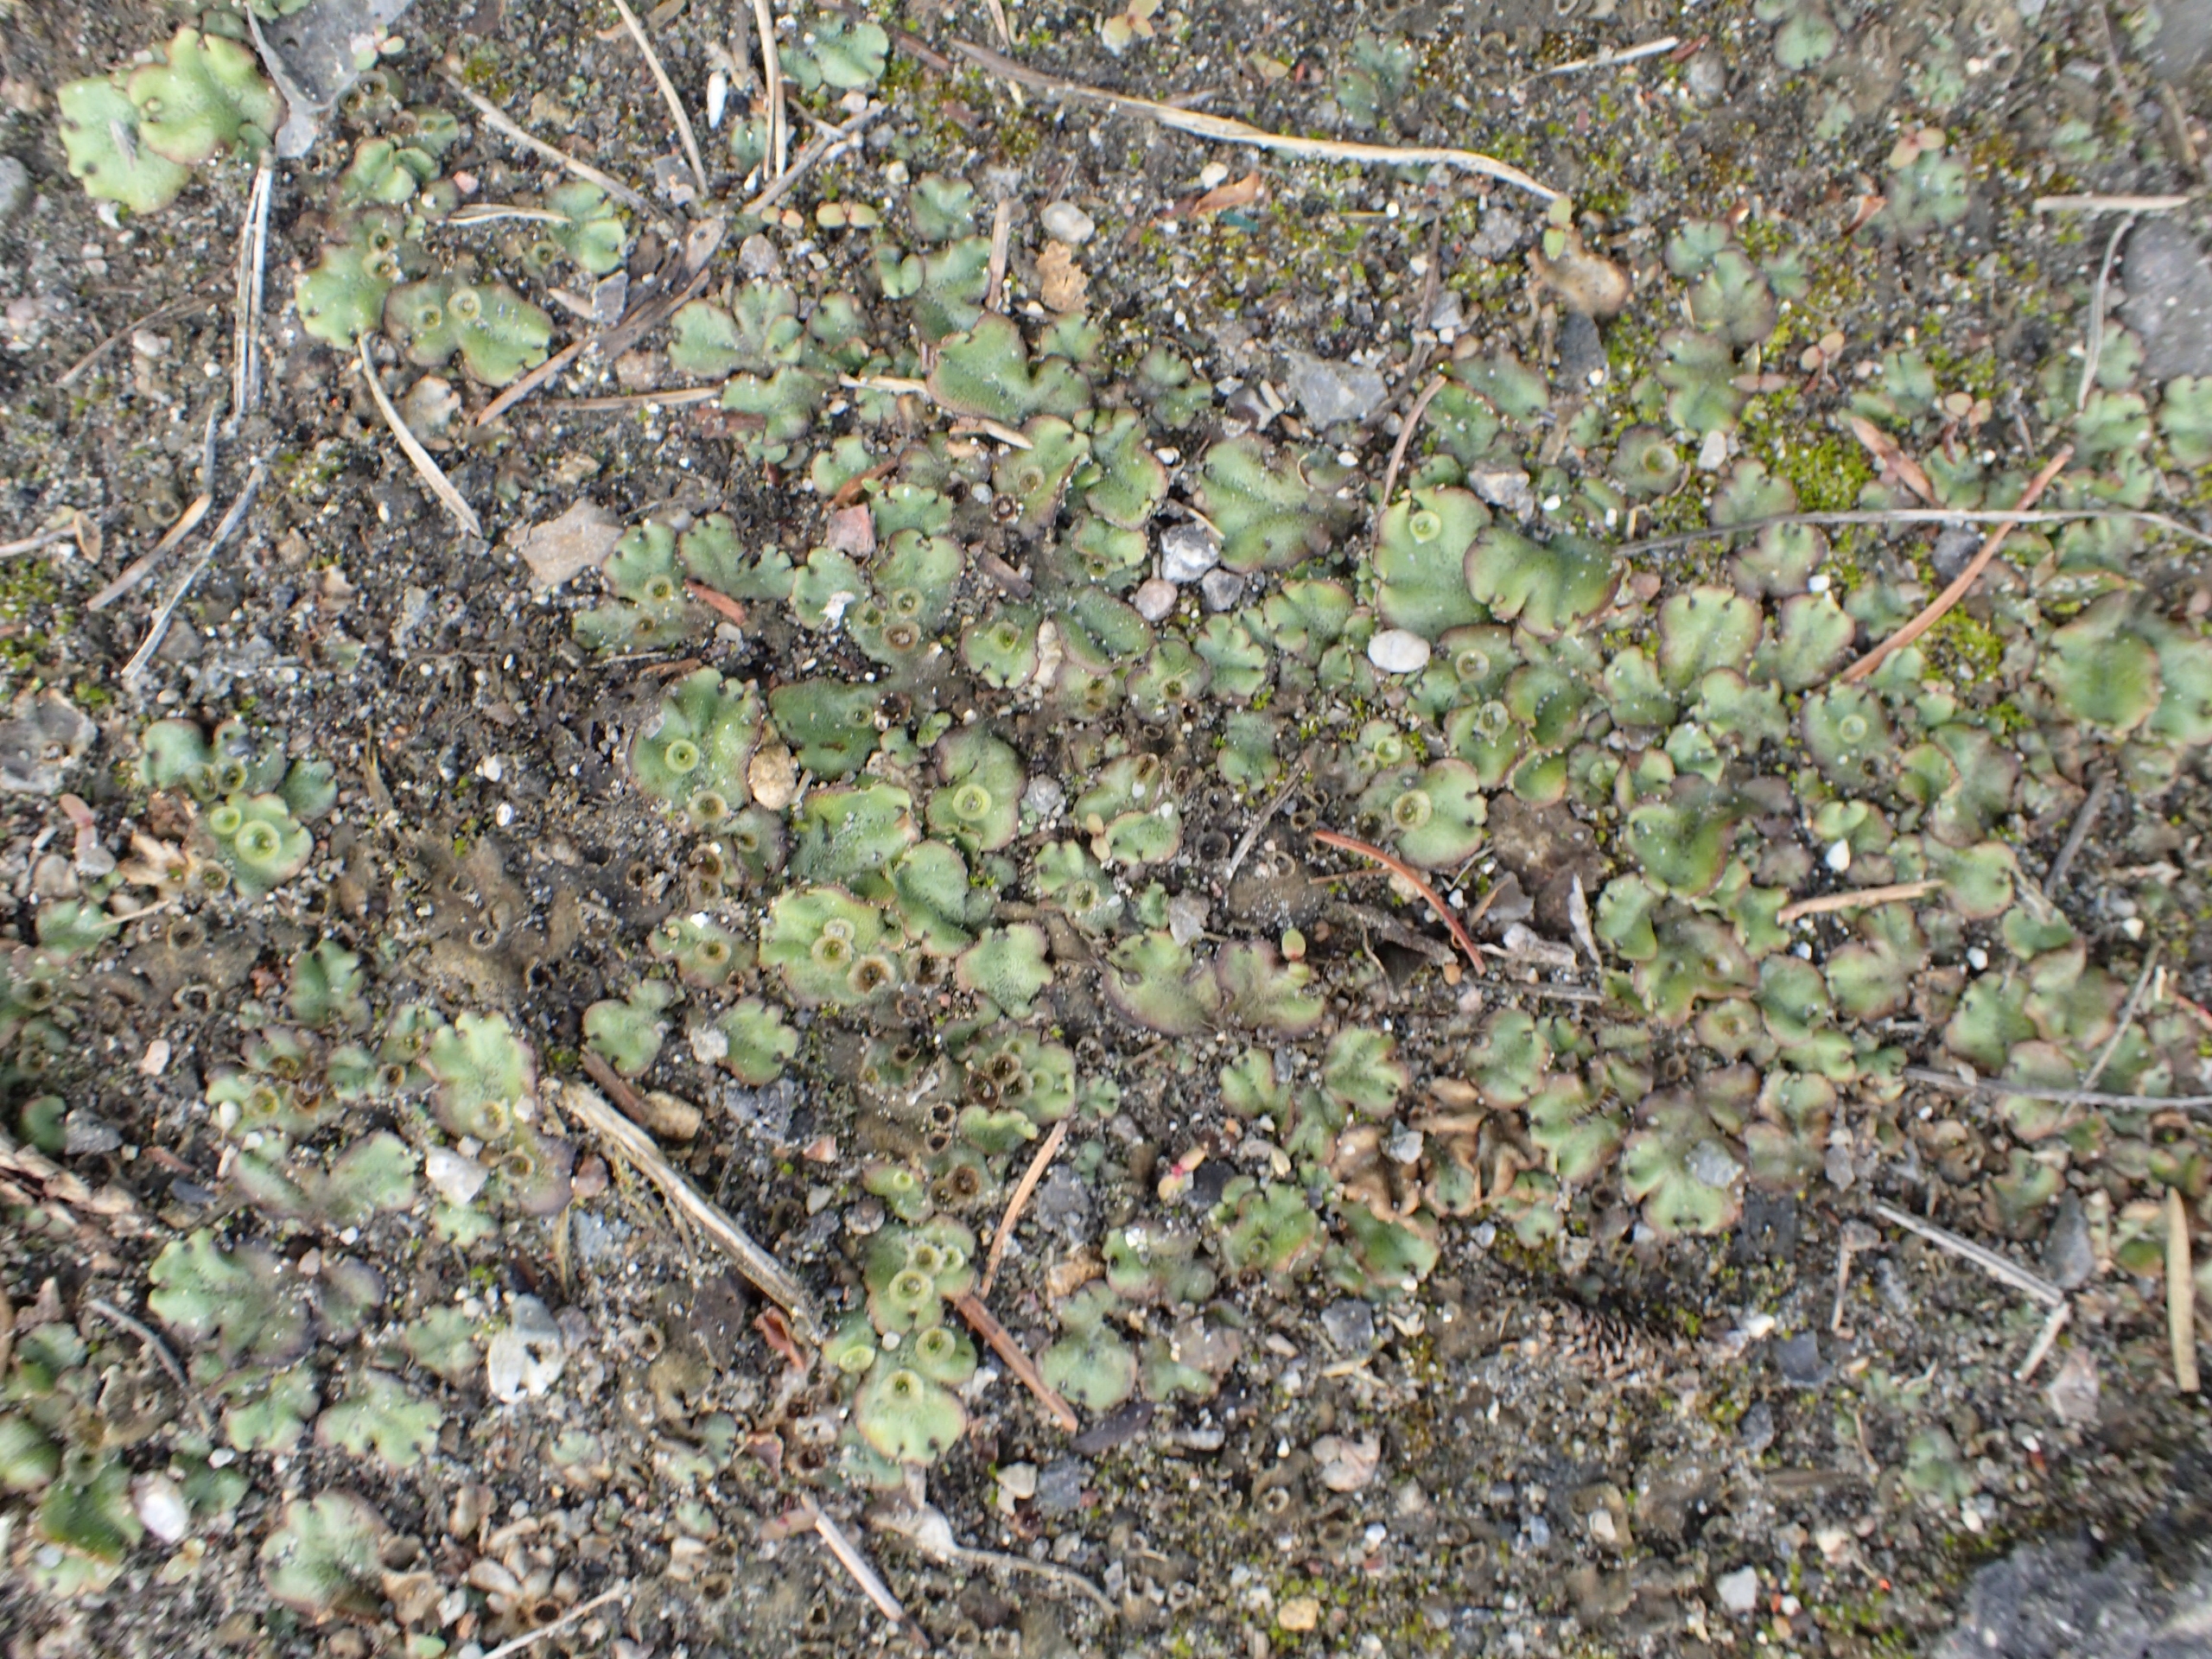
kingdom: Plantae
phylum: Marchantiophyta
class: Marchantiopsida
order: Marchantiales
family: Marchantiaceae
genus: Marchantia
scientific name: Marchantia polymorpha
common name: Almindelig lungemos (underart)
